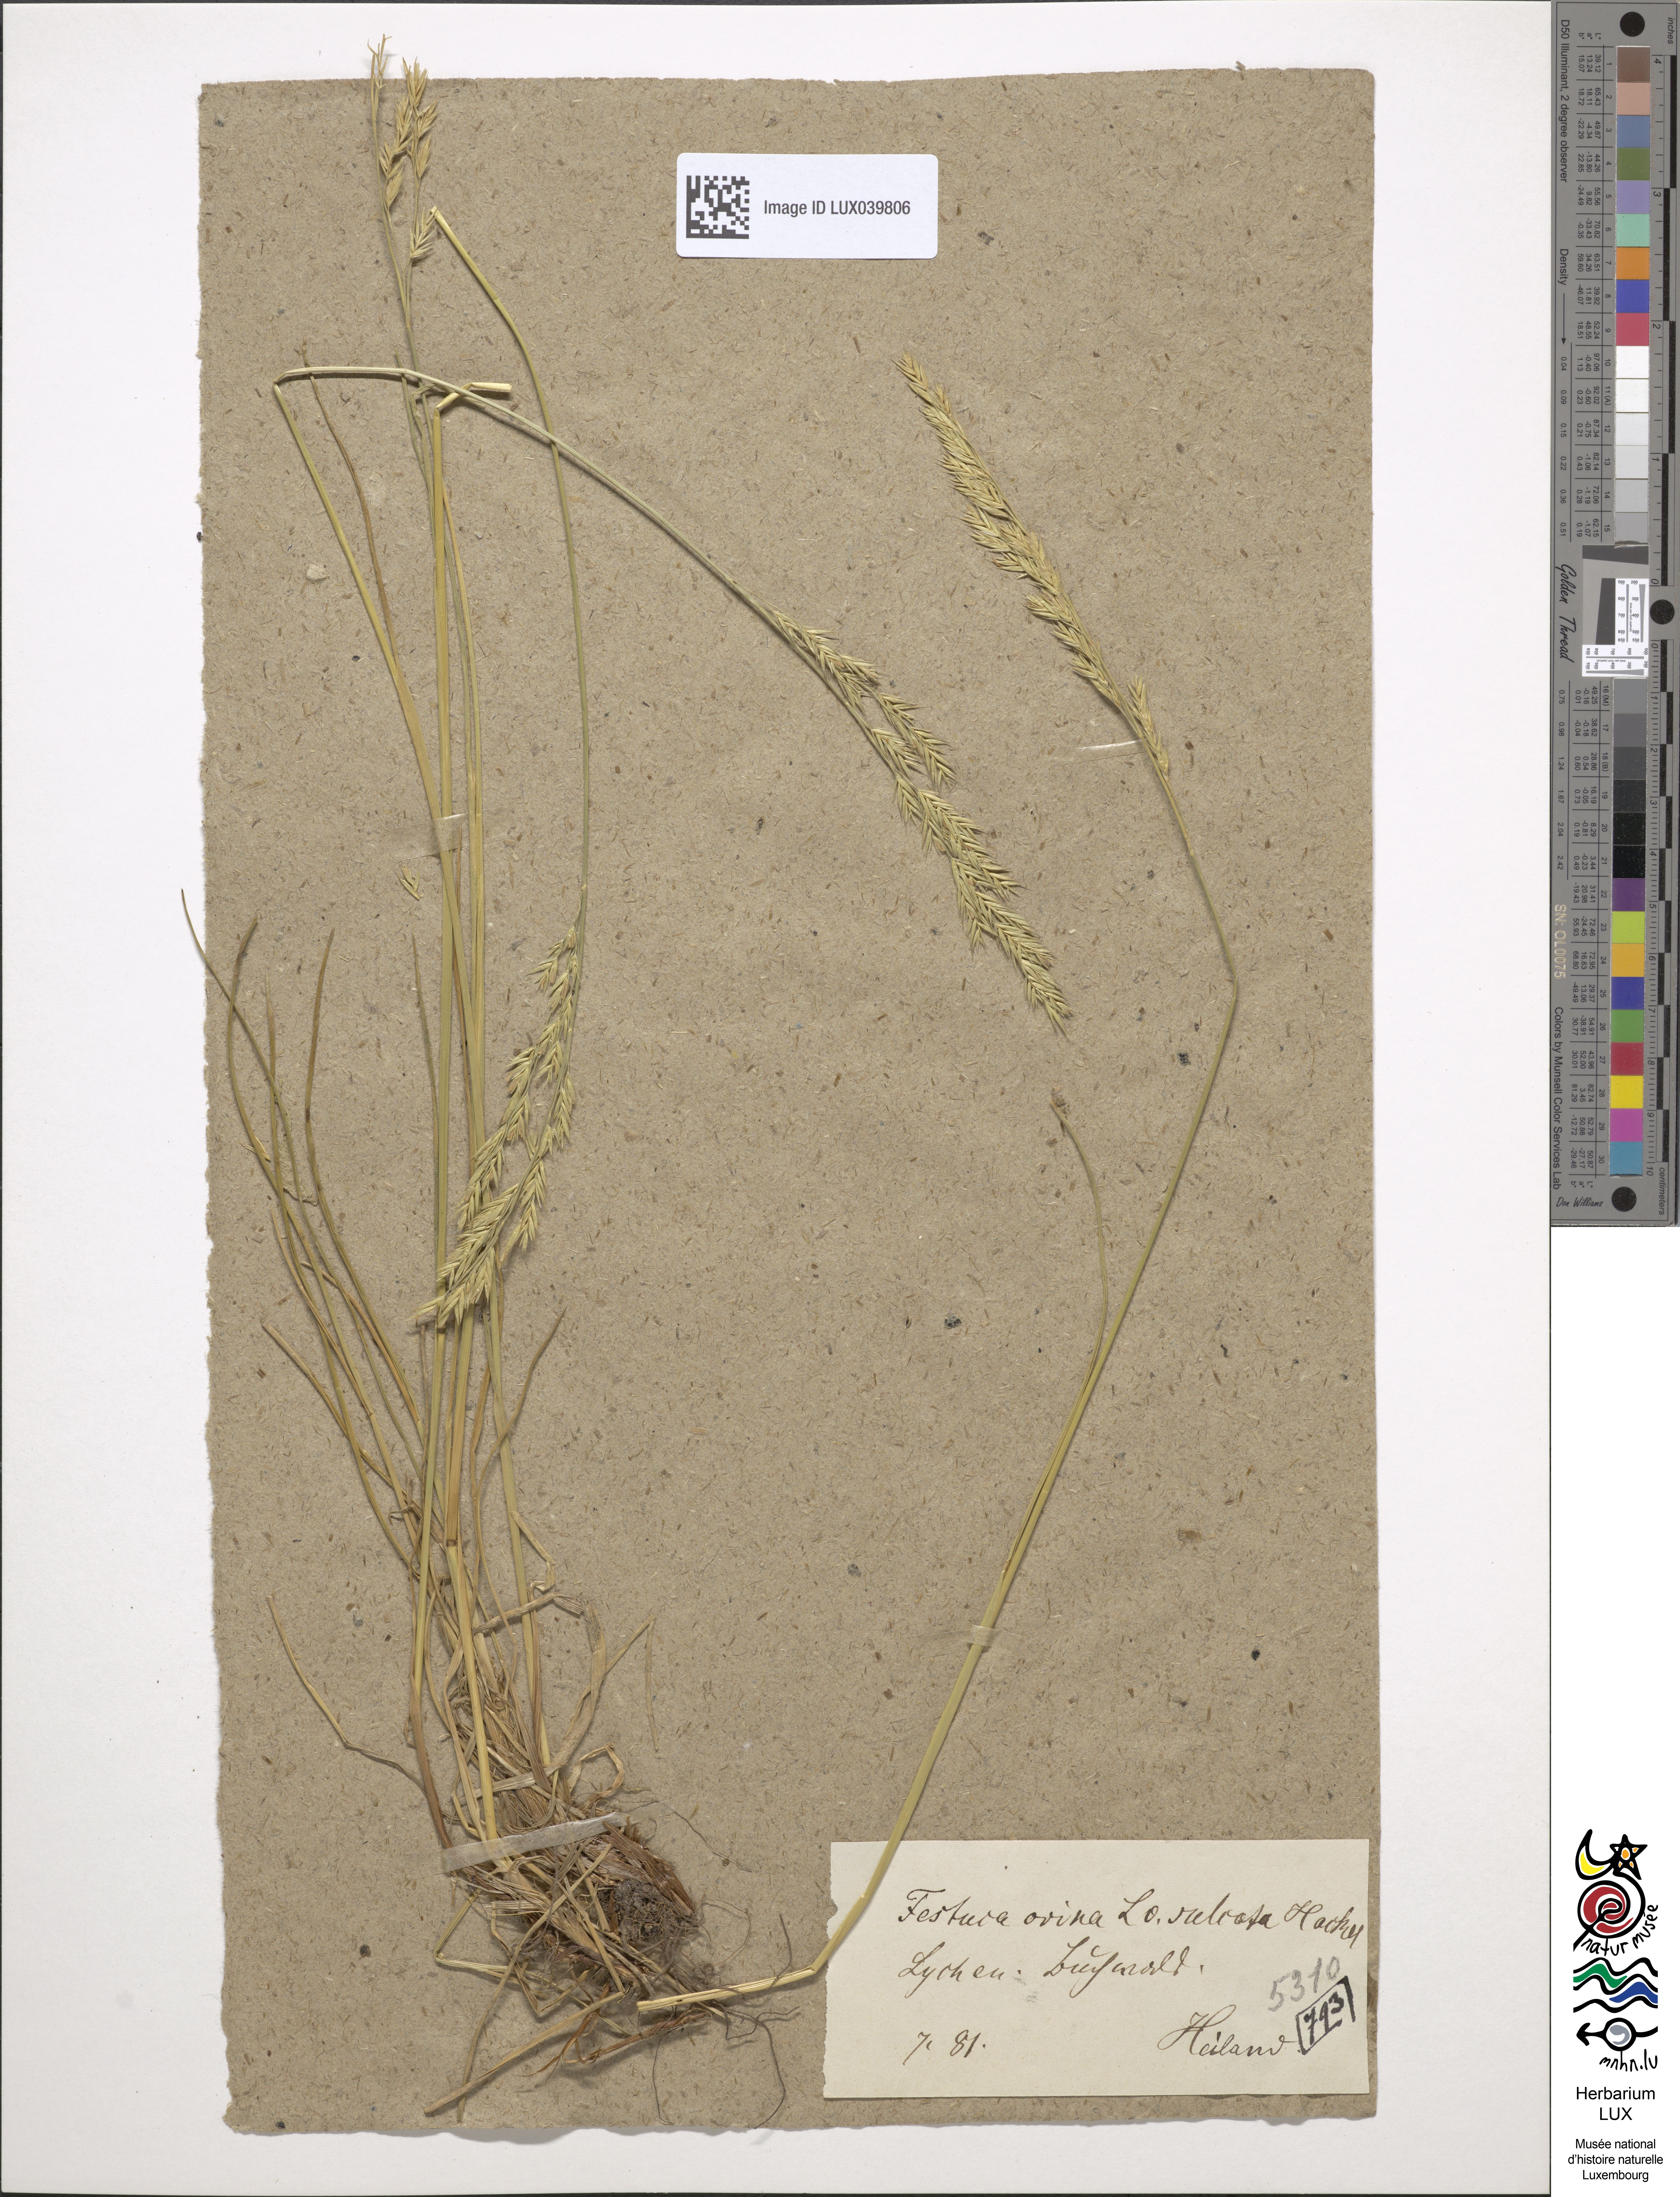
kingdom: Plantae
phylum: Tracheophyta
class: Liliopsida
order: Poales
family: Poaceae
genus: Festuca
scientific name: Festuca rupicola
